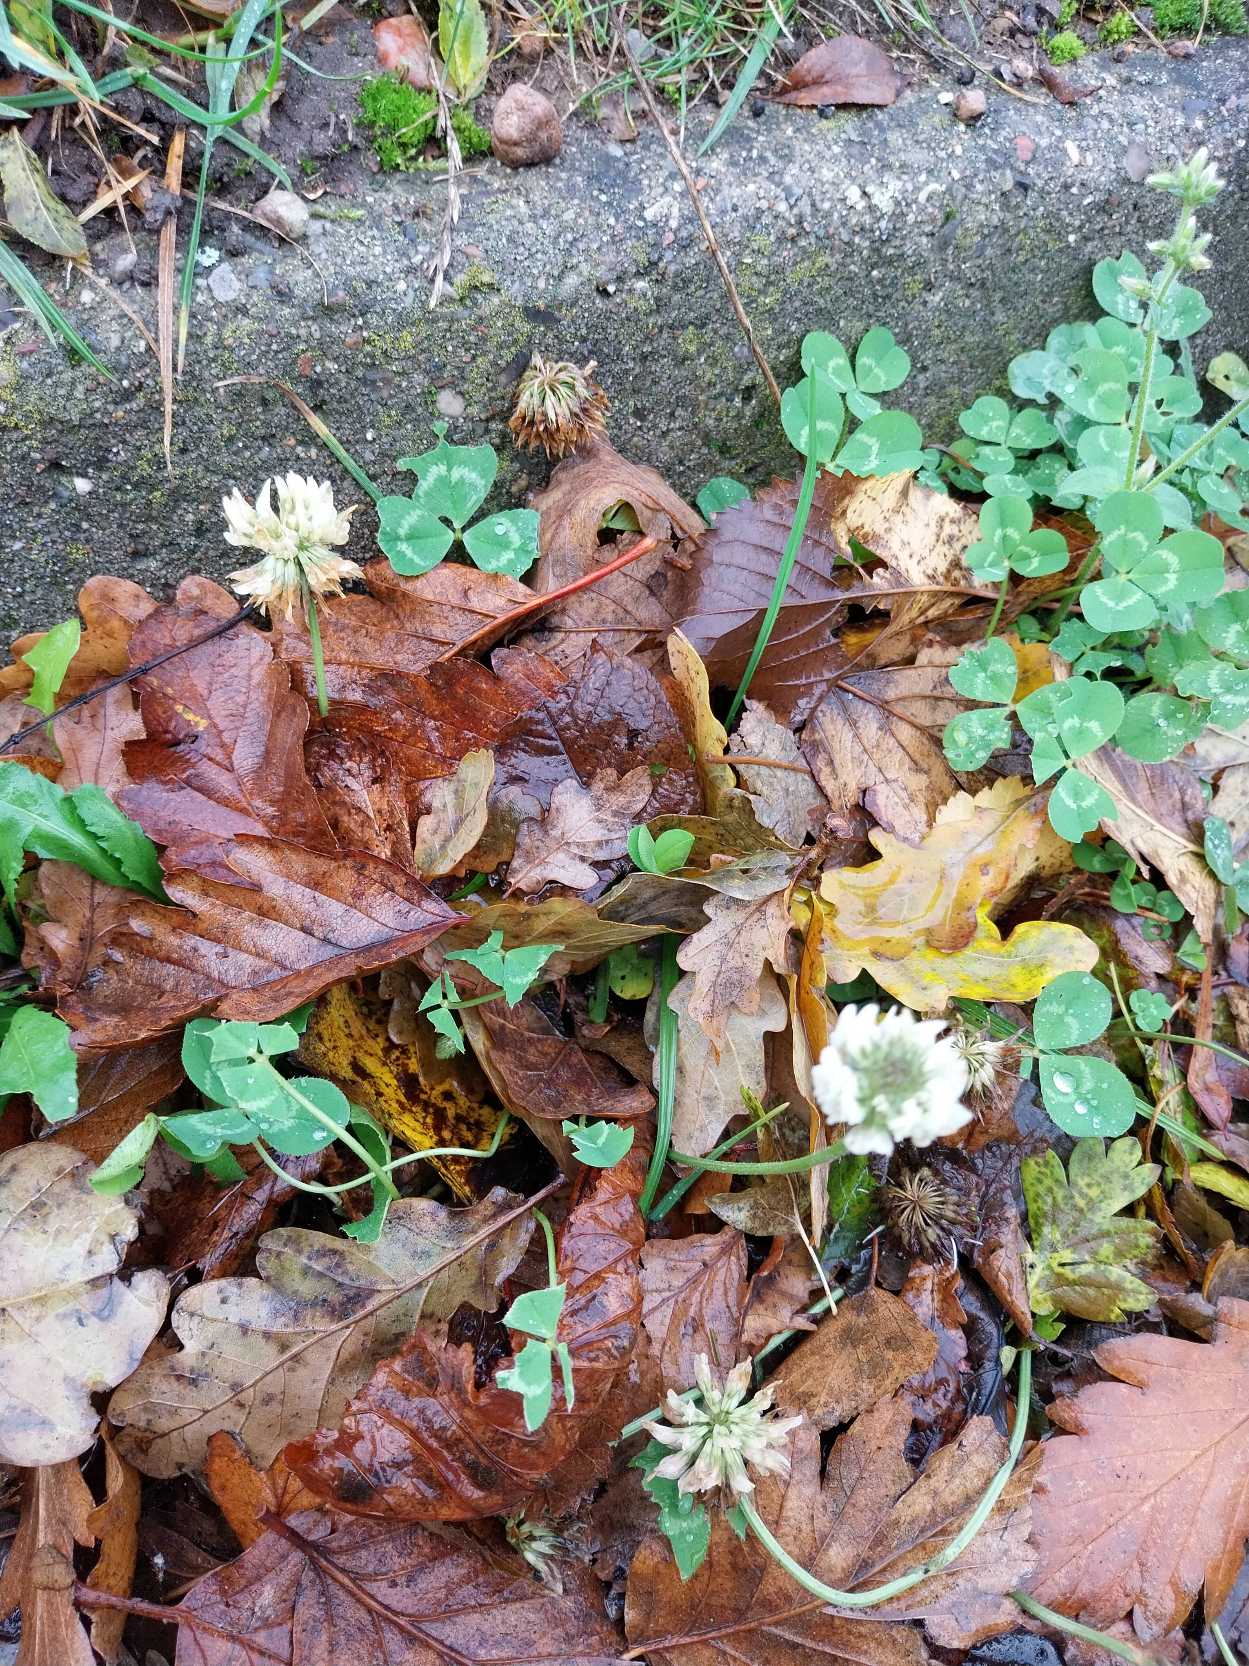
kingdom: Plantae
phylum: Tracheophyta
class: Magnoliopsida
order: Fabales
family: Fabaceae
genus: Trifolium
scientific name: Trifolium repens
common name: Hvid-kløver
